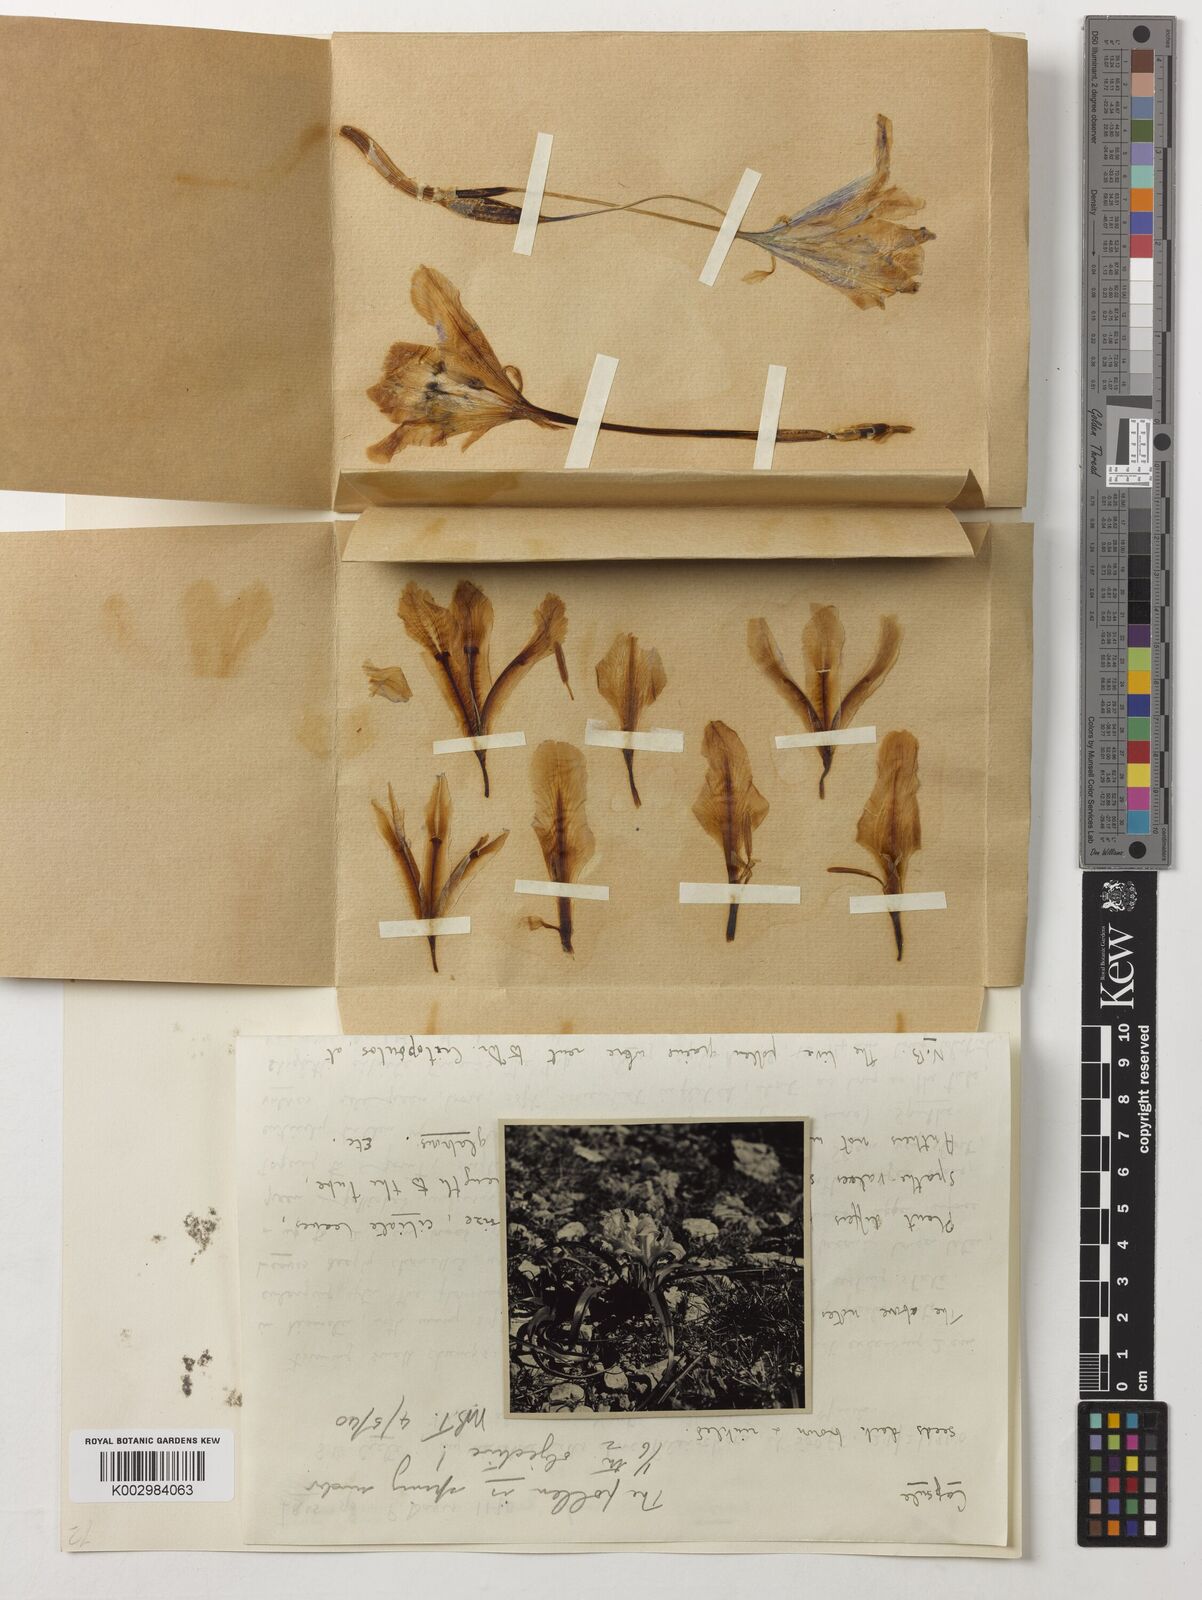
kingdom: Plantae
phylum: Tracheophyta
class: Liliopsida
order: Asparagales
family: Iridaceae
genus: Iris
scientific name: Iris planifolia
